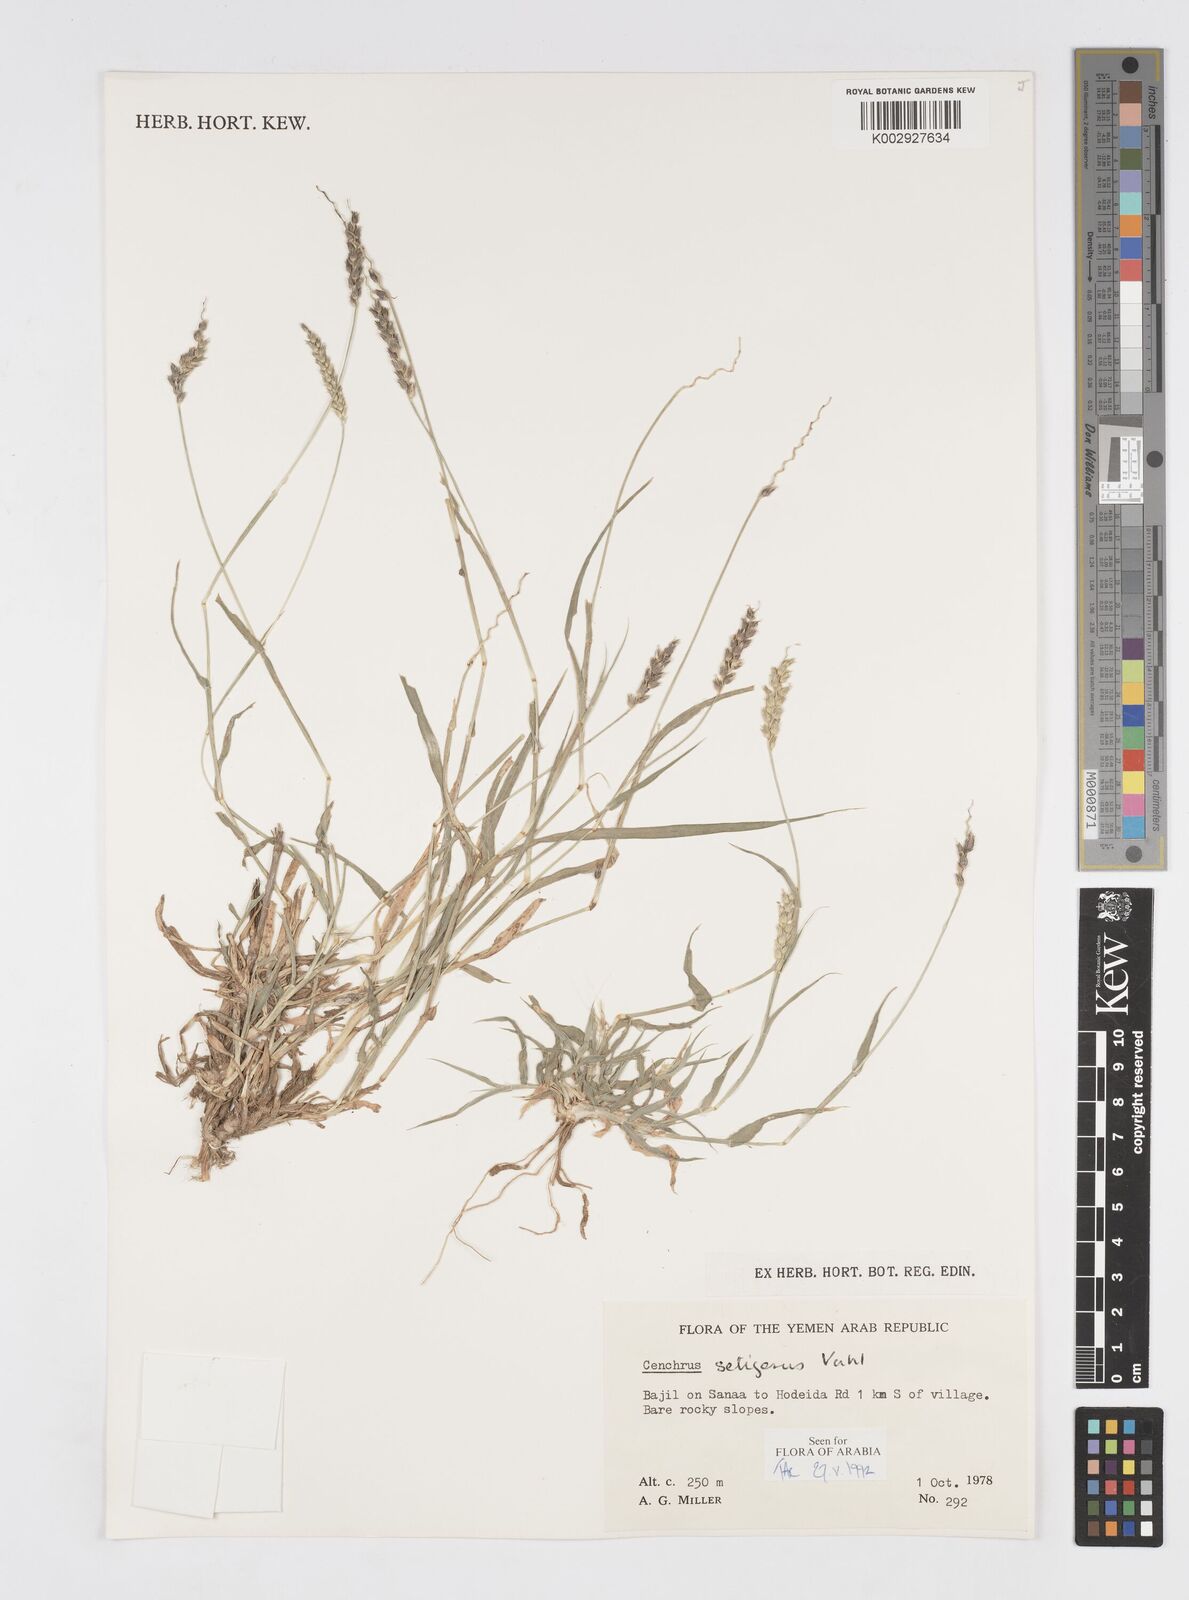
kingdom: Plantae
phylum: Tracheophyta
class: Liliopsida
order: Poales
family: Poaceae
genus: Cenchrus
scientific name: Cenchrus setigerus
